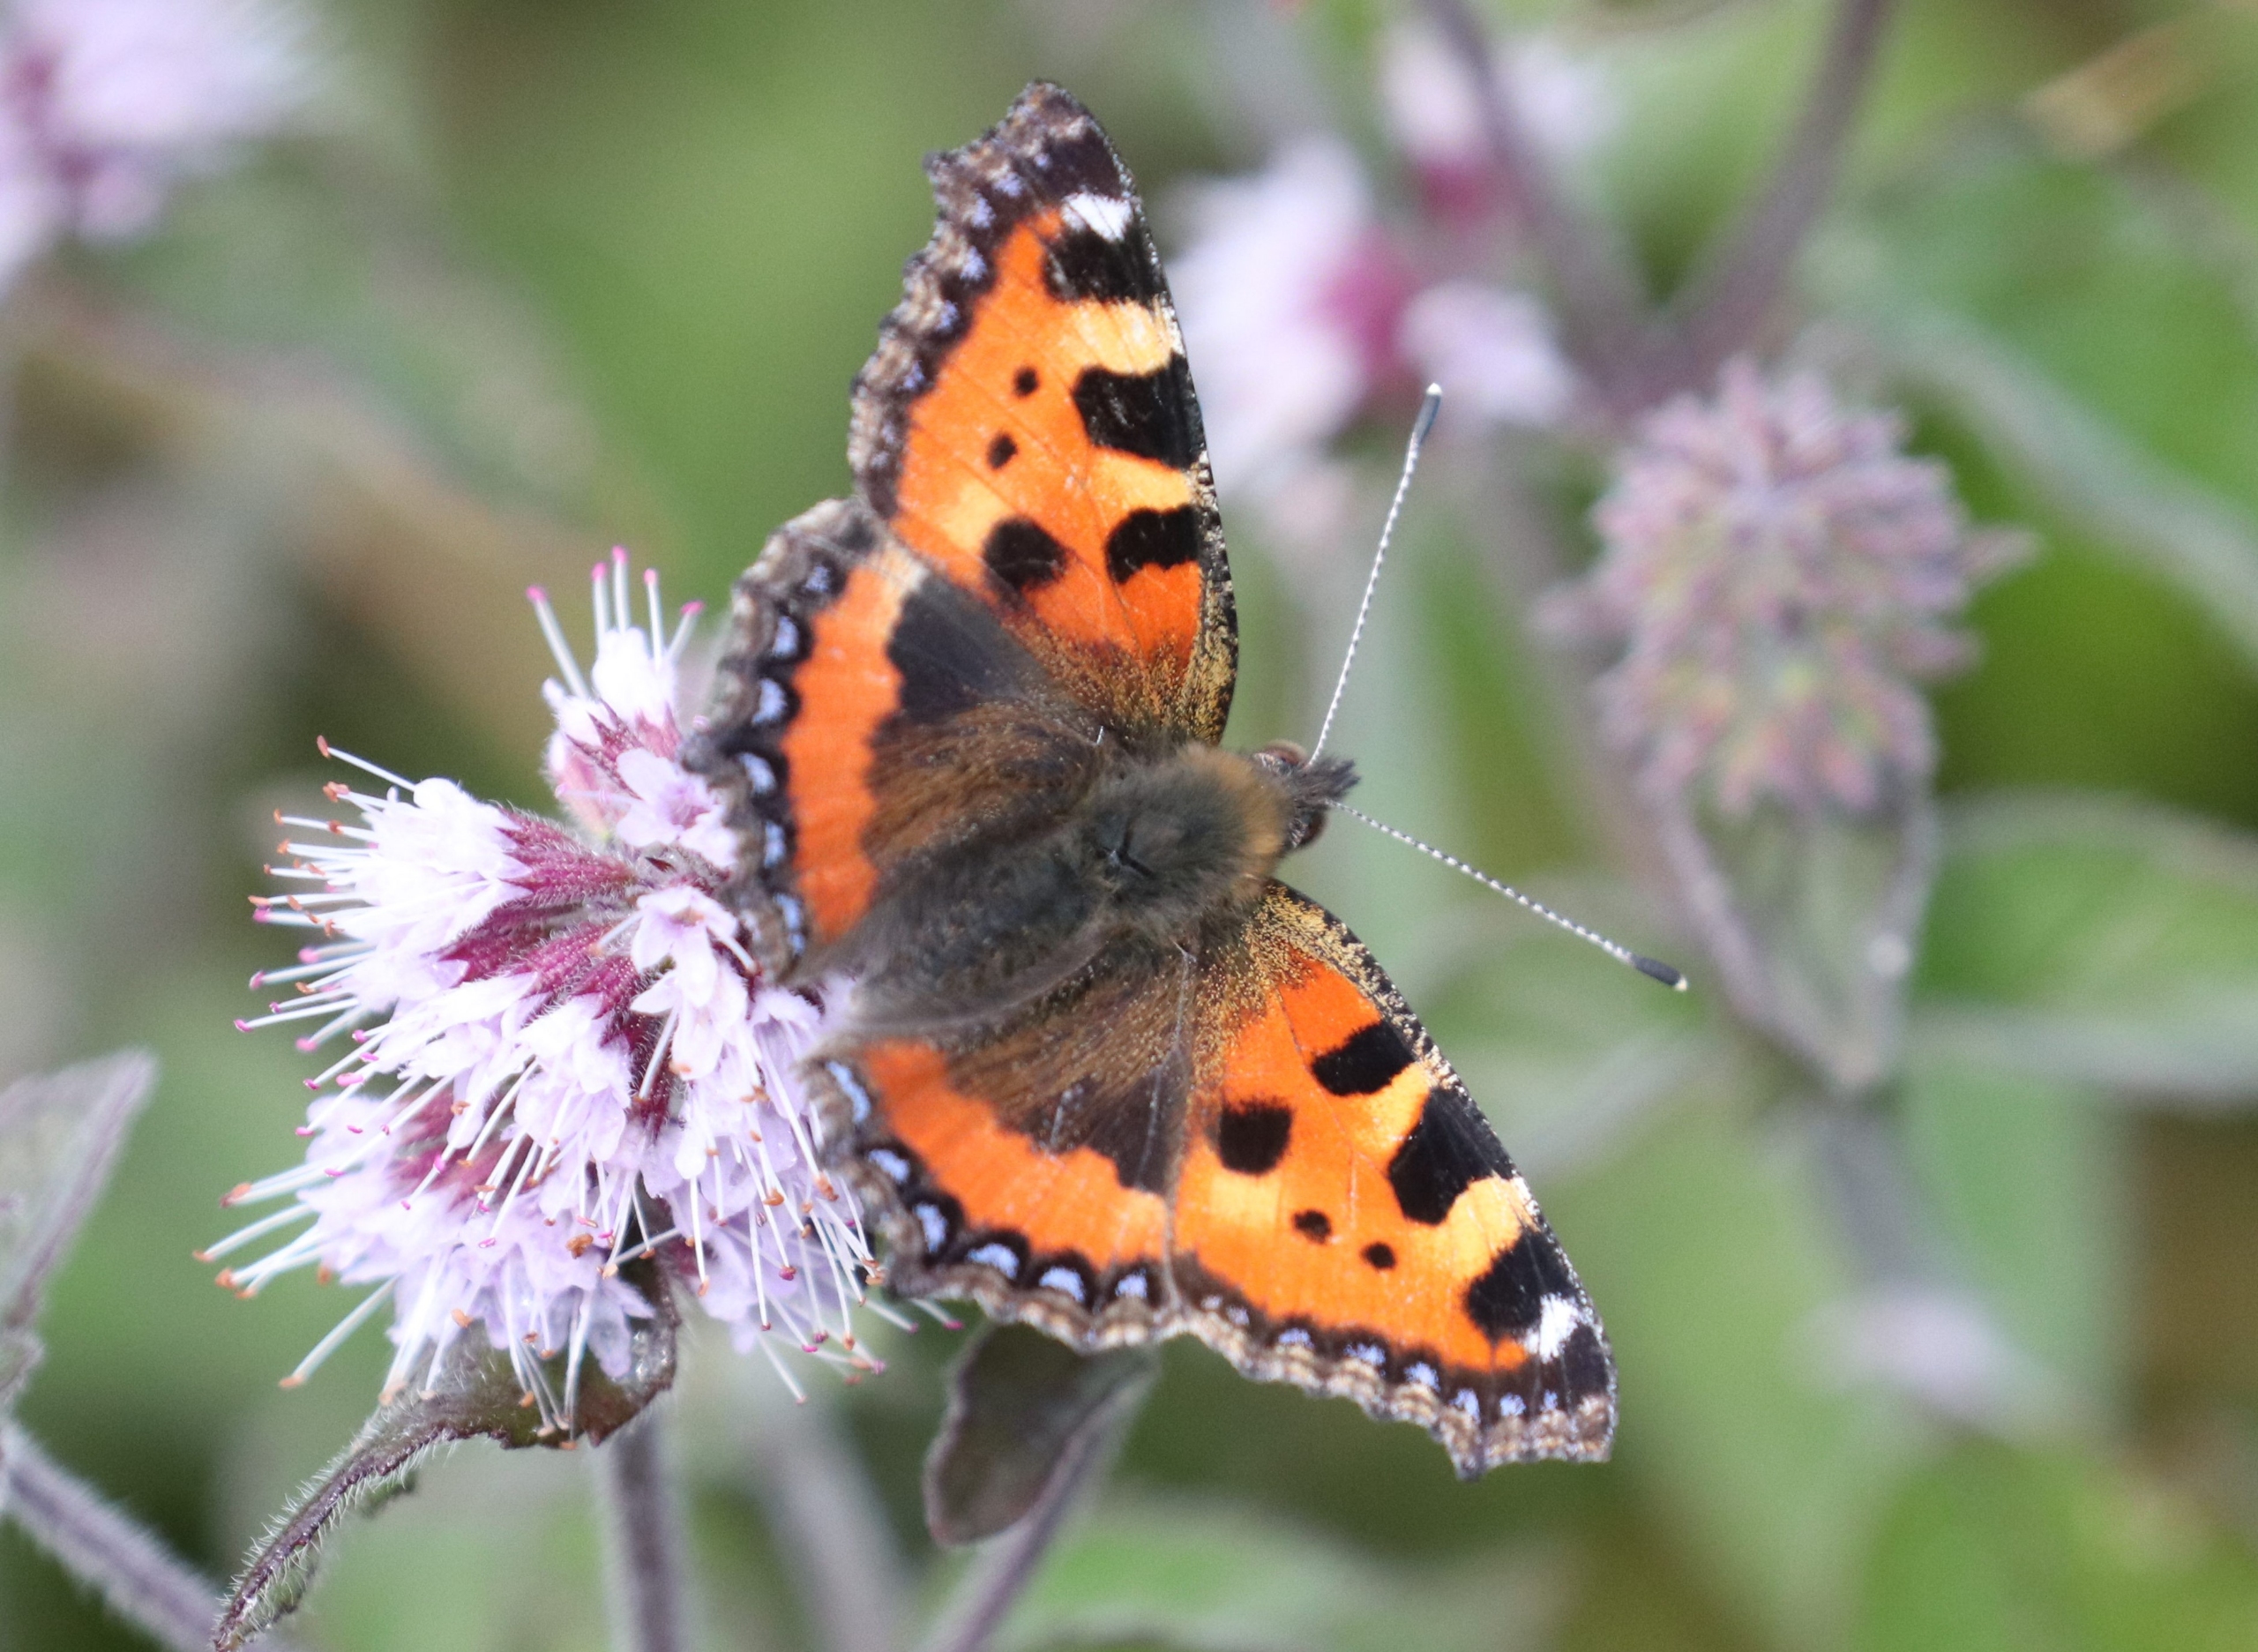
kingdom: Animalia
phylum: Arthropoda
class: Insecta
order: Lepidoptera
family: Nymphalidae
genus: Aglais
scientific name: Aglais urticae
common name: Nældens takvinge
